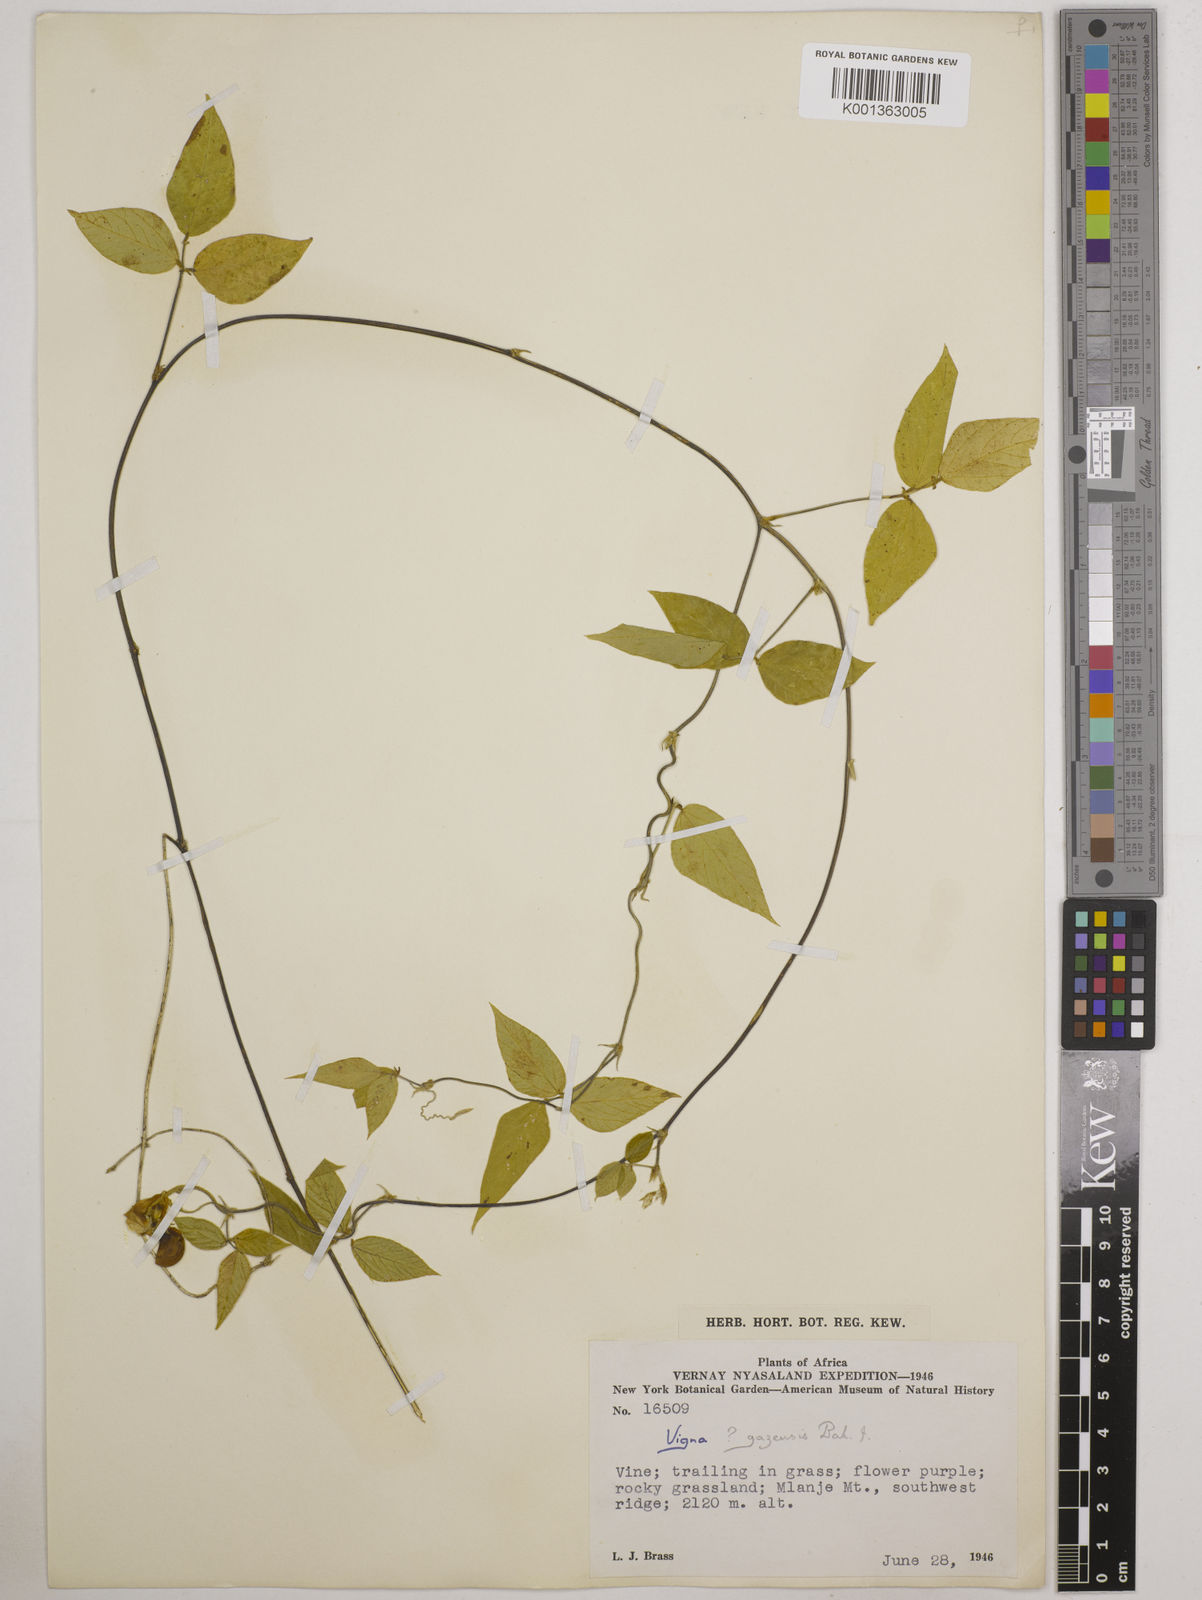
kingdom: Plantae
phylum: Tracheophyta
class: Magnoliopsida
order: Fabales
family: Fabaceae
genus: Vigna
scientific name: Vigna gazensis
